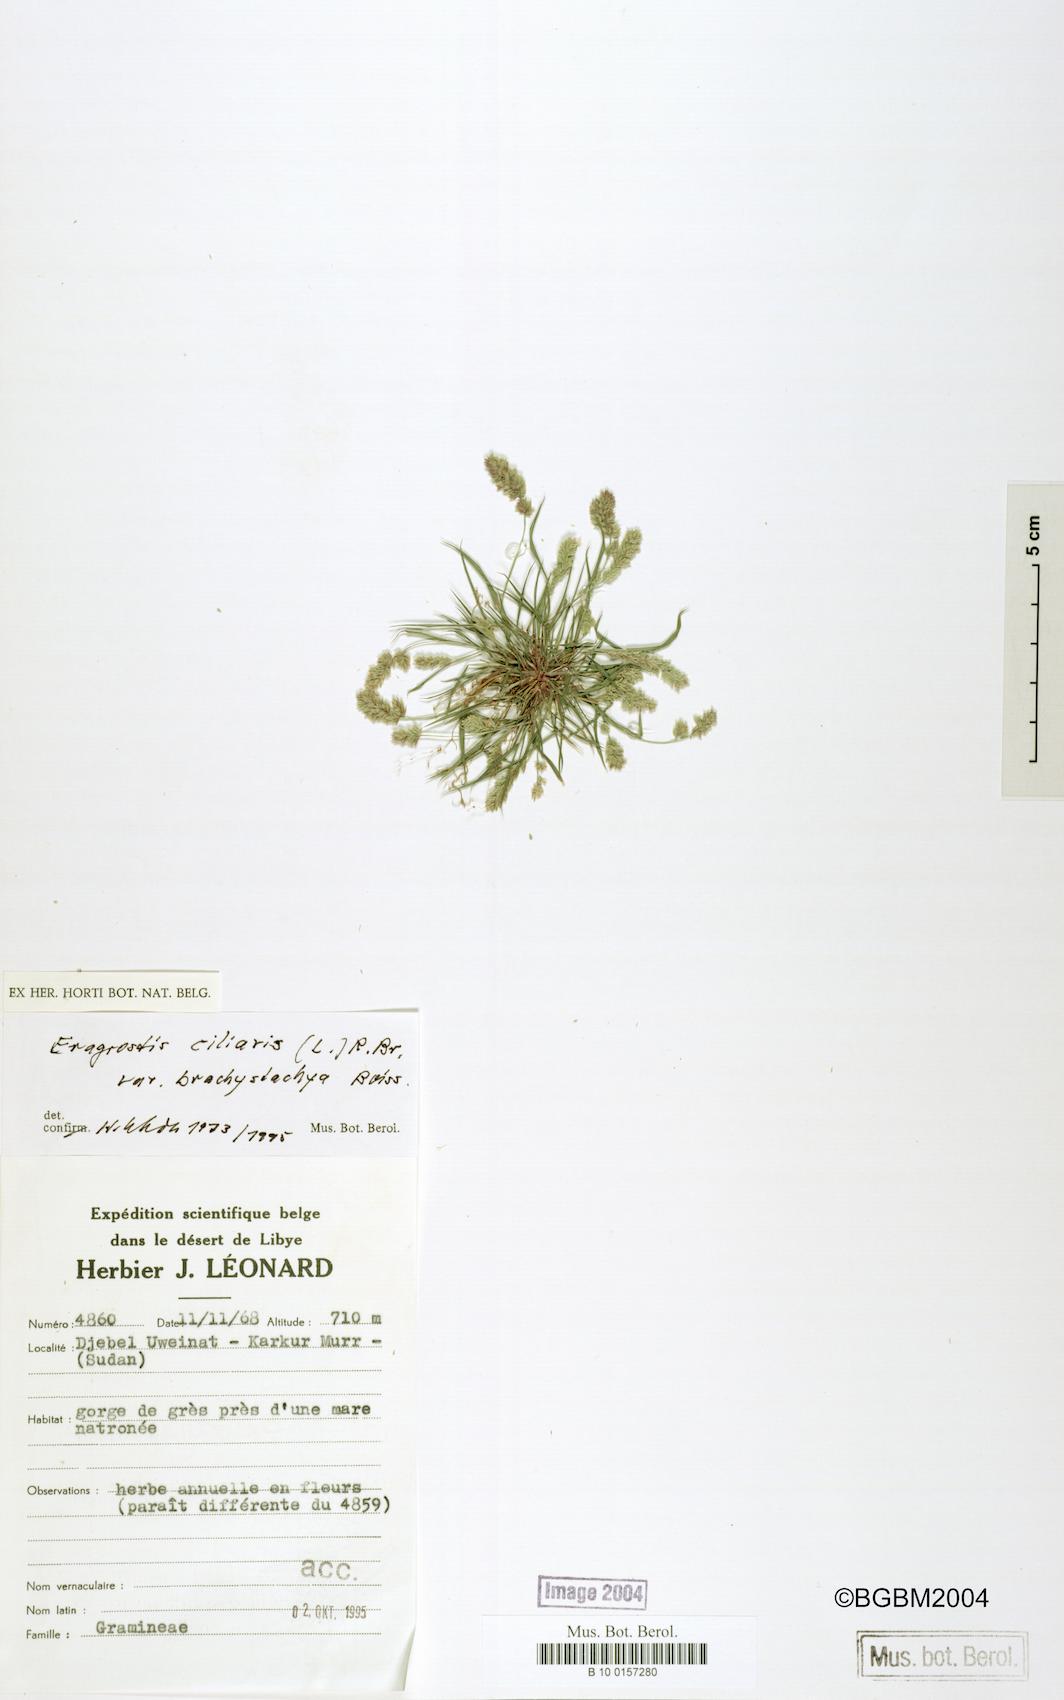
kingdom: Plantae
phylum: Tracheophyta
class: Liliopsida
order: Poales
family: Poaceae
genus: Eragrostis
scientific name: Eragrostis ciliaris
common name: Gophertail lovegrass
